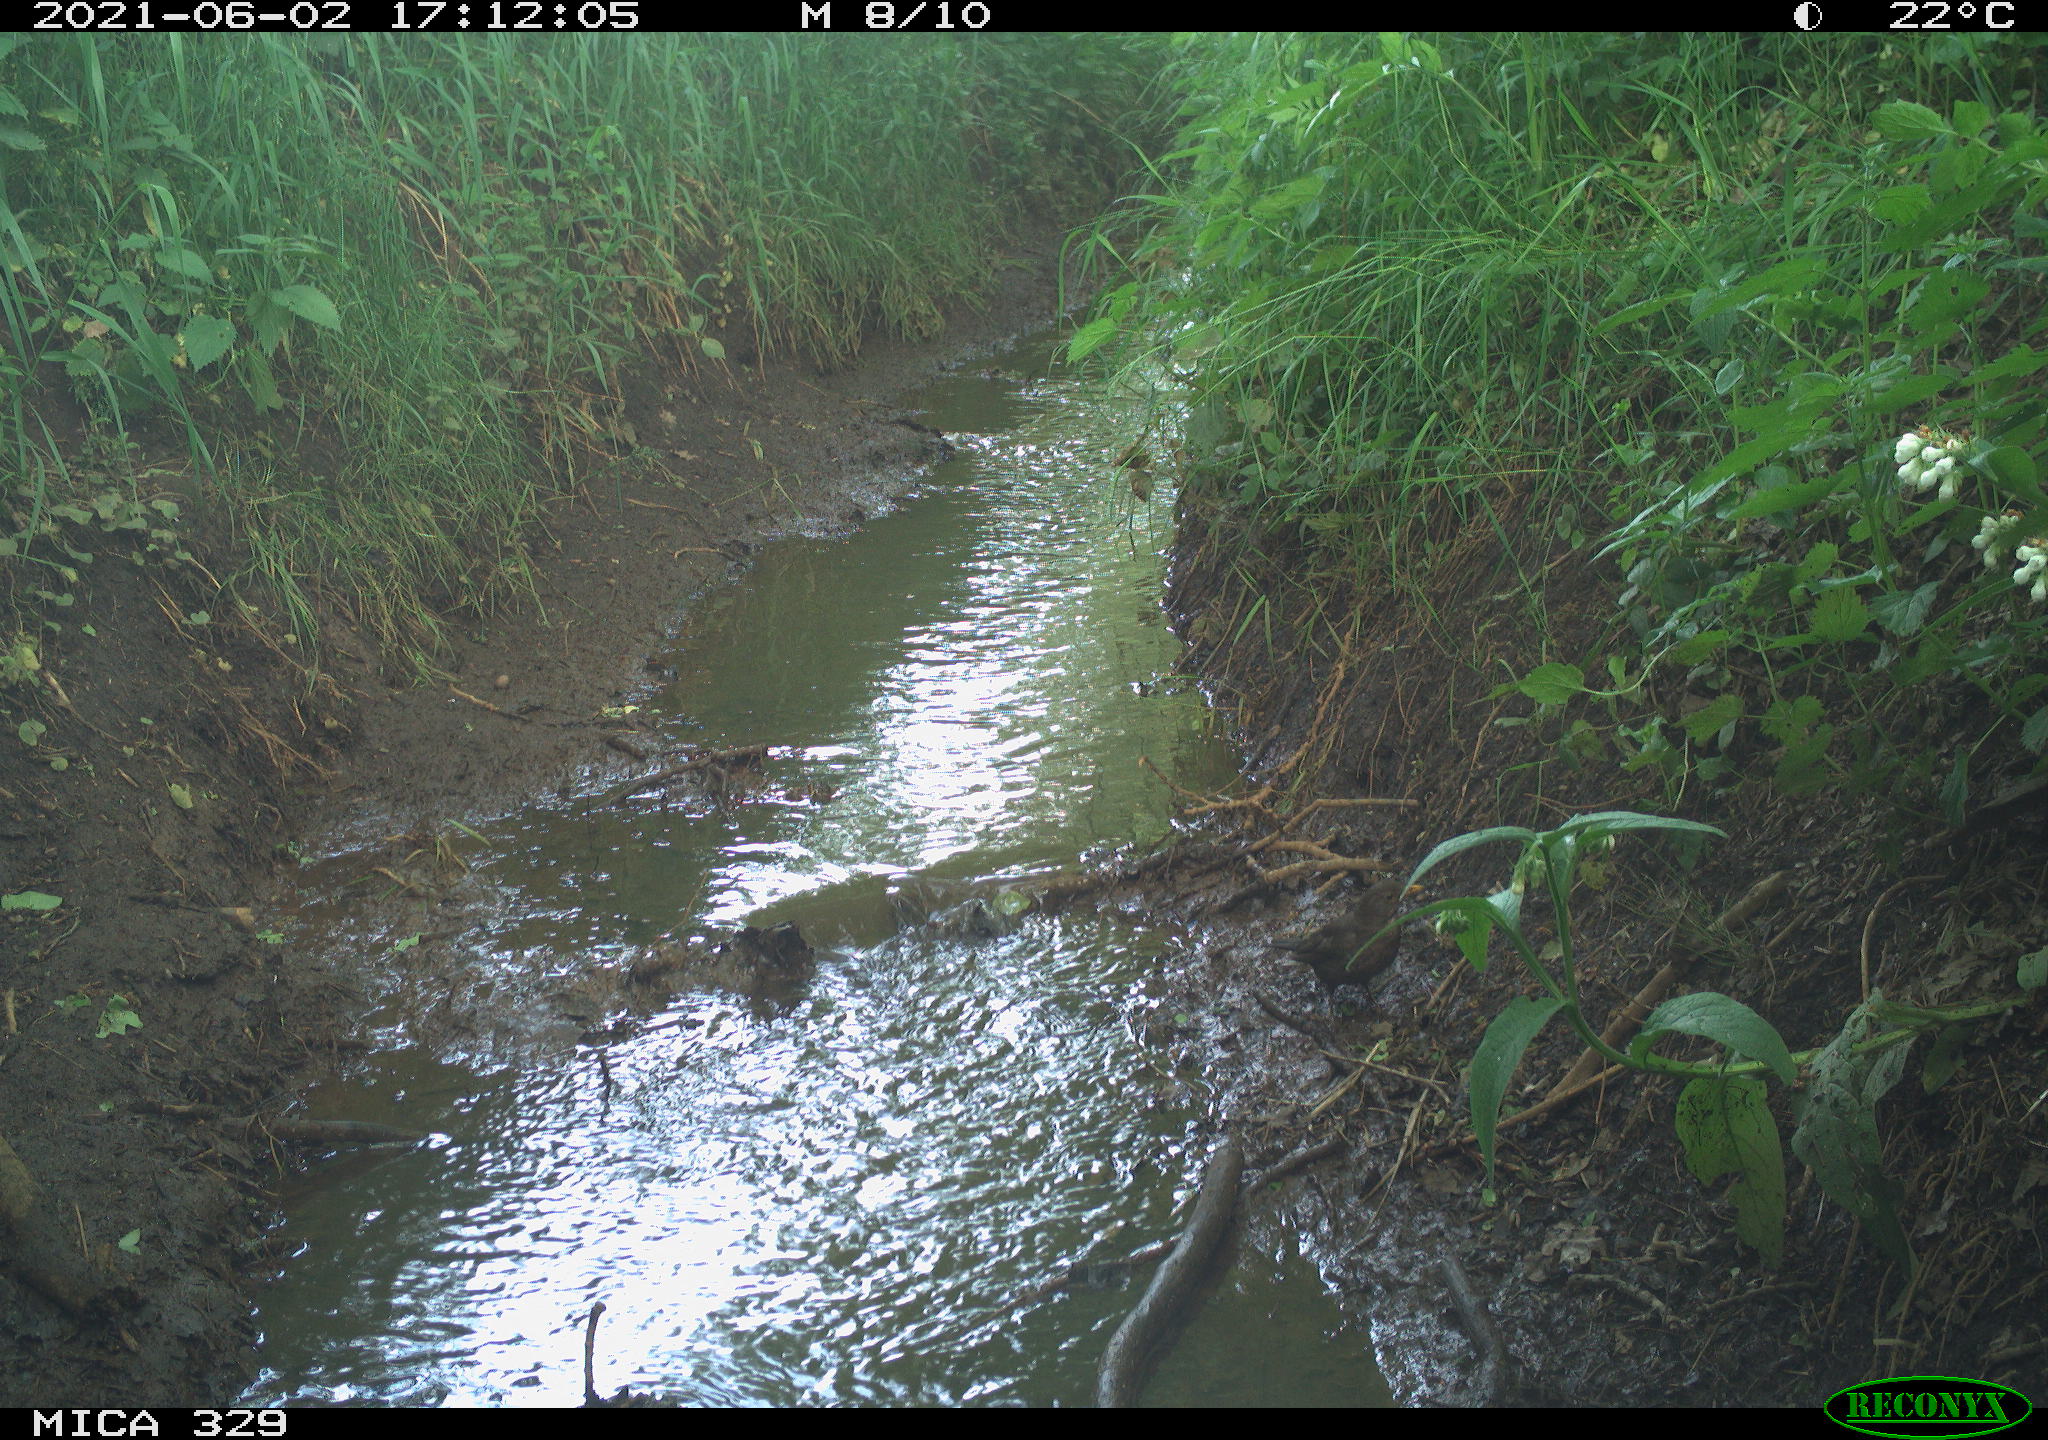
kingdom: Animalia
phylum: Chordata
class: Aves
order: Passeriformes
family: Turdidae
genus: Turdus
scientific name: Turdus merula
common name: Common blackbird
